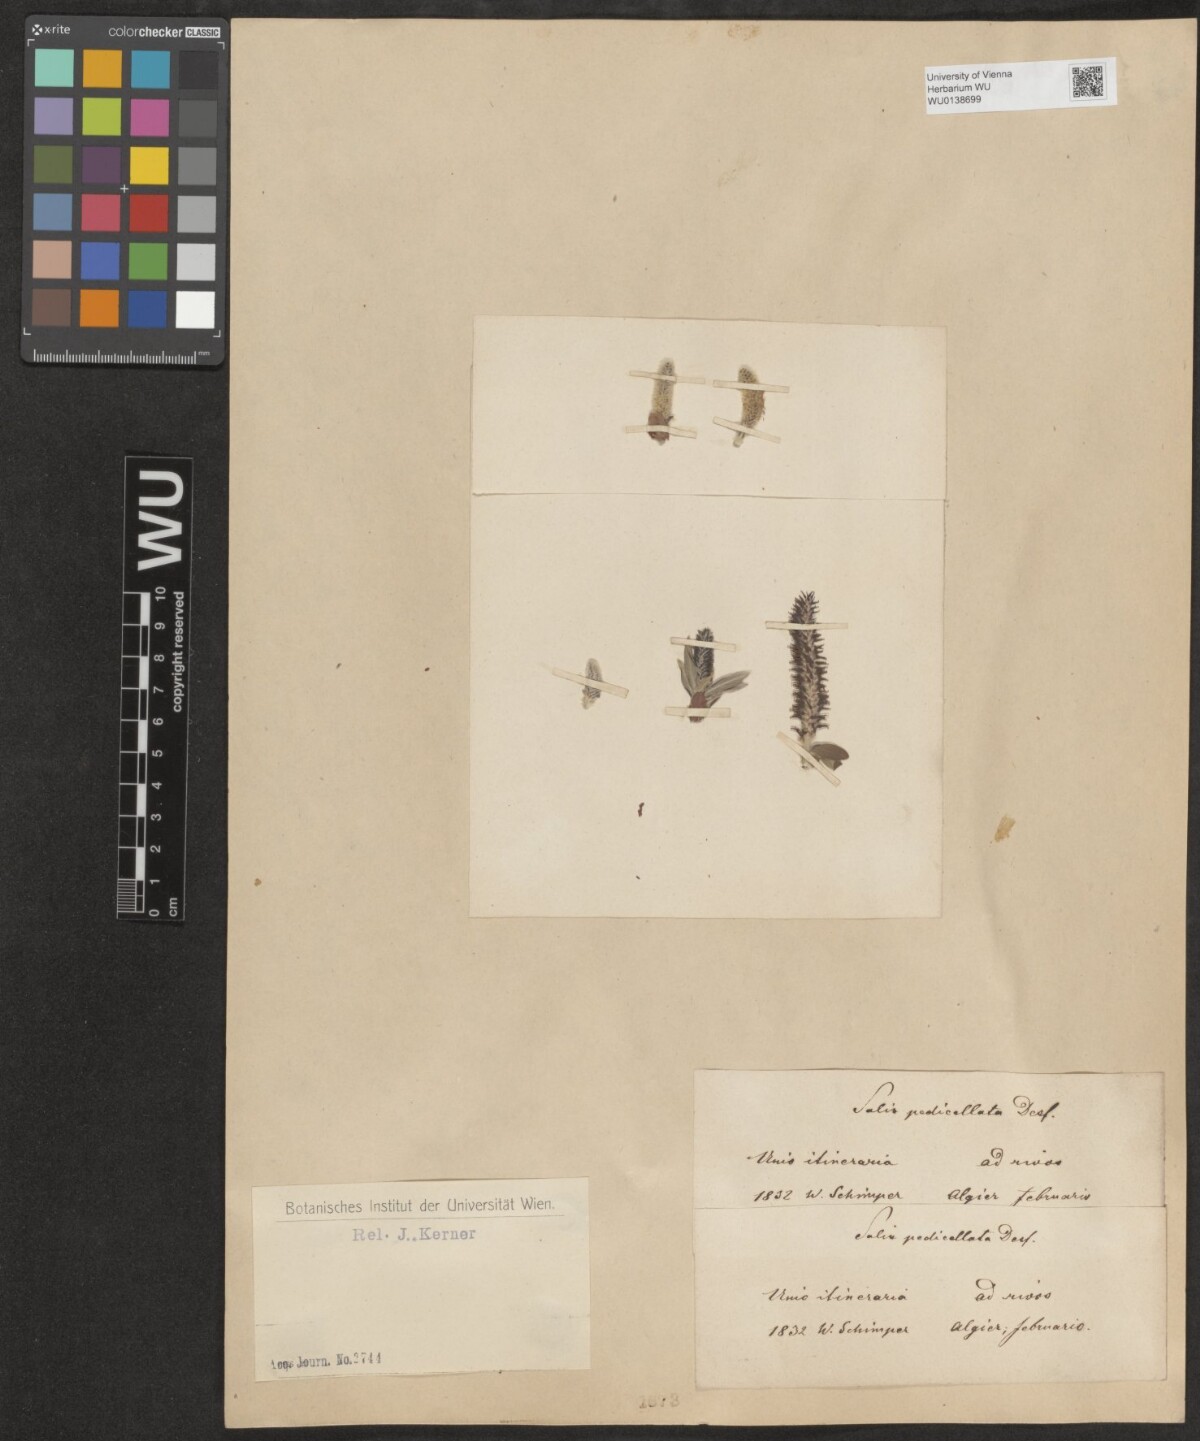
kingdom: Plantae
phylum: Tracheophyta
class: Magnoliopsida
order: Malpighiales
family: Salicaceae
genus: Salix
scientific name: Salix pedicellata
